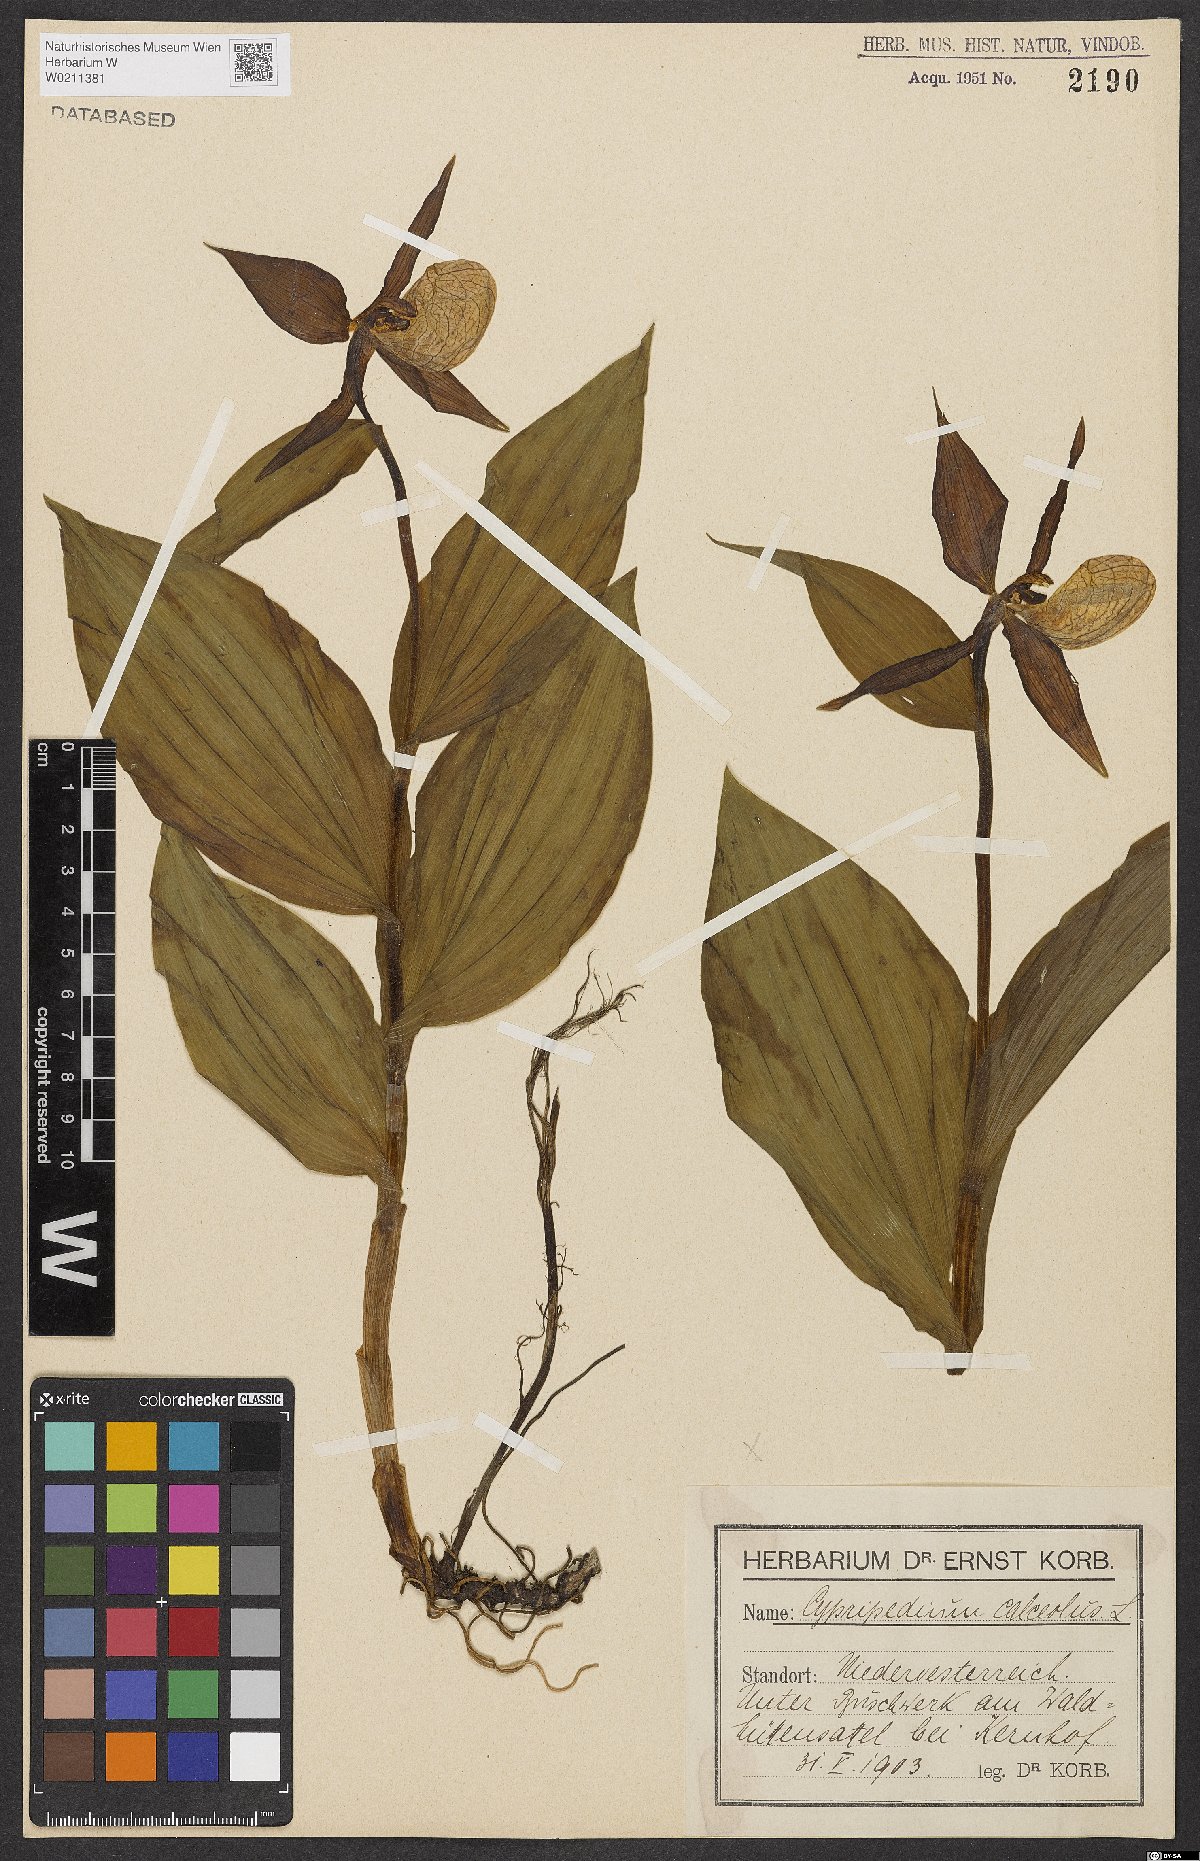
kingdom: Plantae
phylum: Tracheophyta
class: Liliopsida
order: Asparagales
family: Orchidaceae
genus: Cypripedium
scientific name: Cypripedium calceolus
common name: Lady's-slipper
